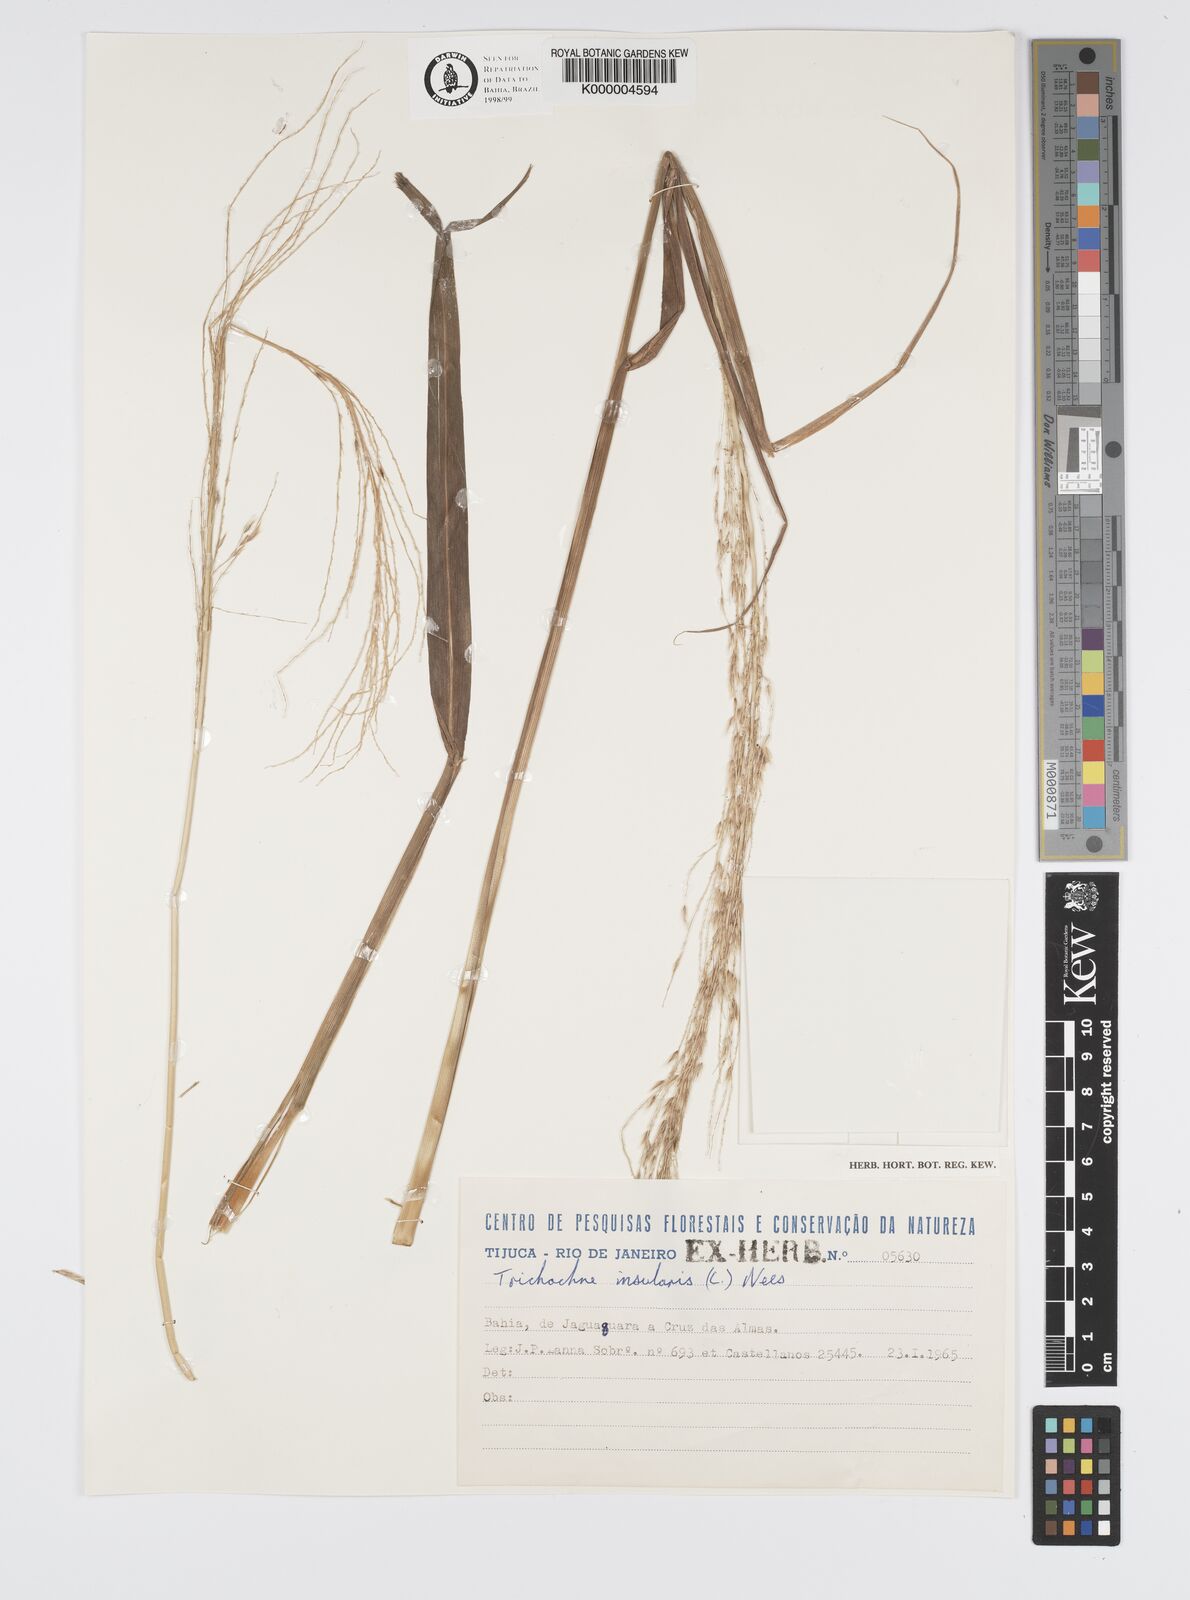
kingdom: Plantae
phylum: Tracheophyta
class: Liliopsida
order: Poales
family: Poaceae
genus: Digitaria
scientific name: Digitaria
